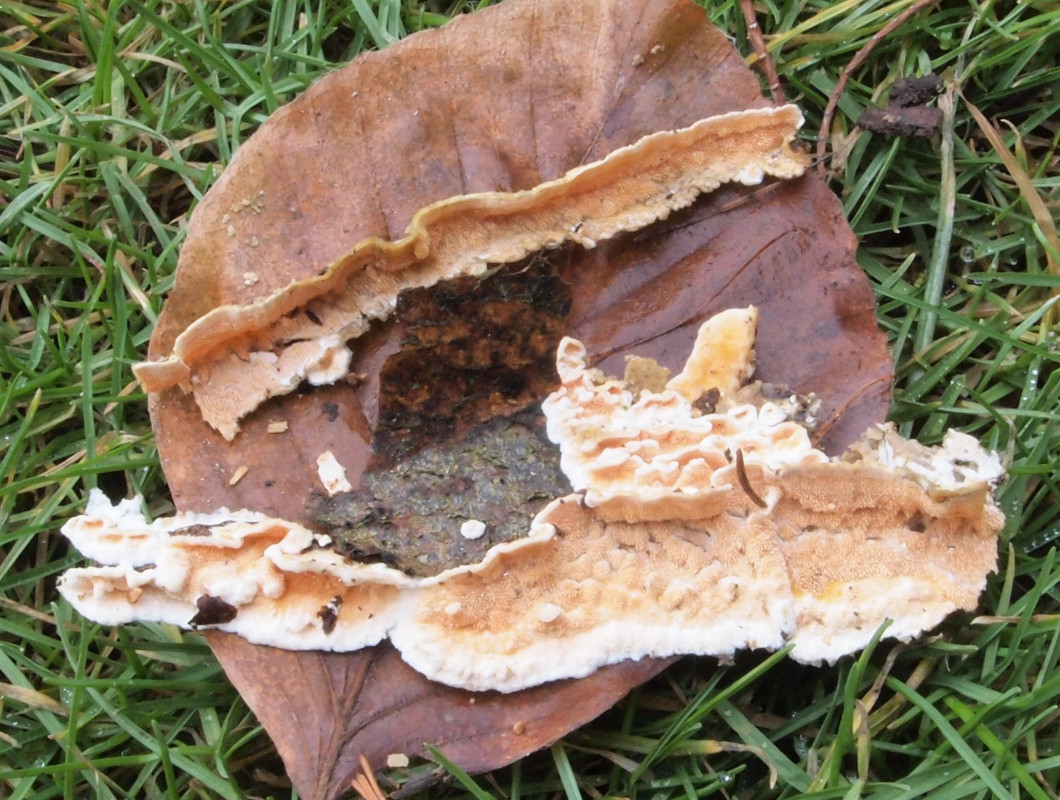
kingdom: Fungi
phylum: Basidiomycota
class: Agaricomycetes
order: Polyporales
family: Steccherinaceae
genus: Steccherinum
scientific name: Steccherinum ochraceum
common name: almindelig skønpig
